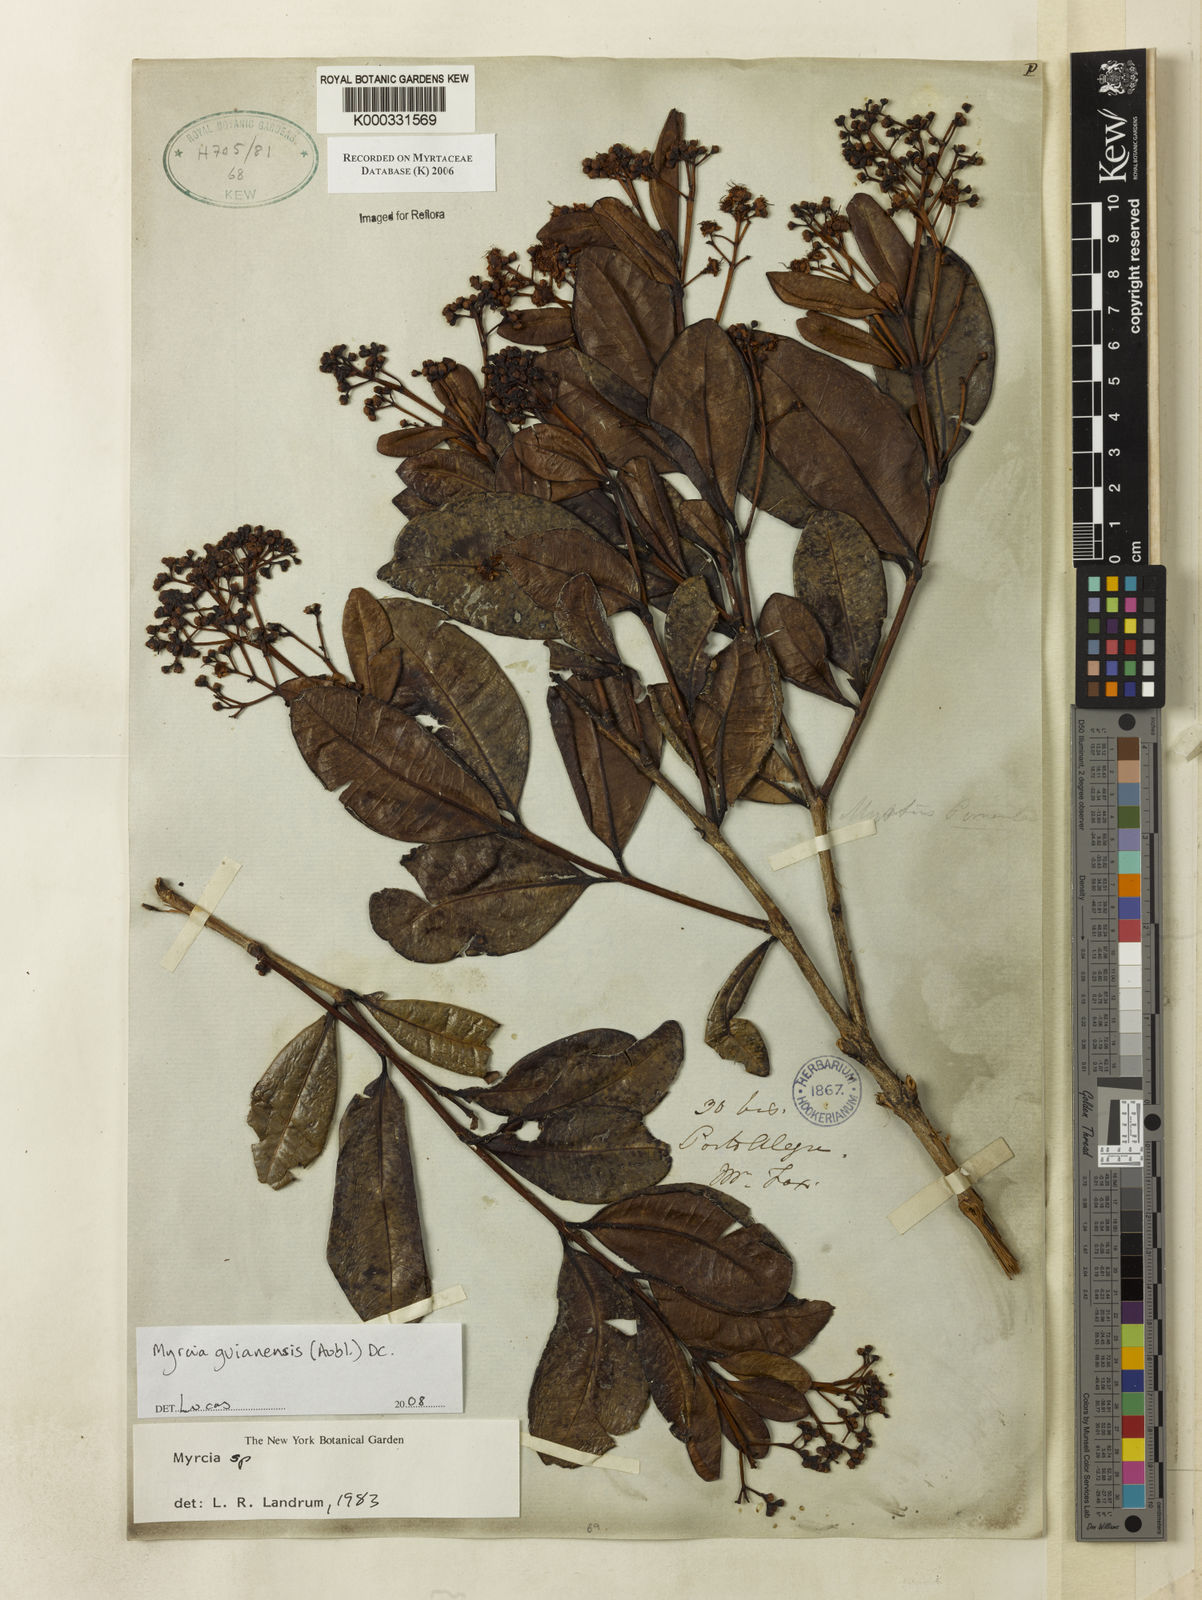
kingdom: Plantae
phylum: Tracheophyta
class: Magnoliopsida
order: Myrtales
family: Myrtaceae
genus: Myrcia
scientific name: Myrcia
